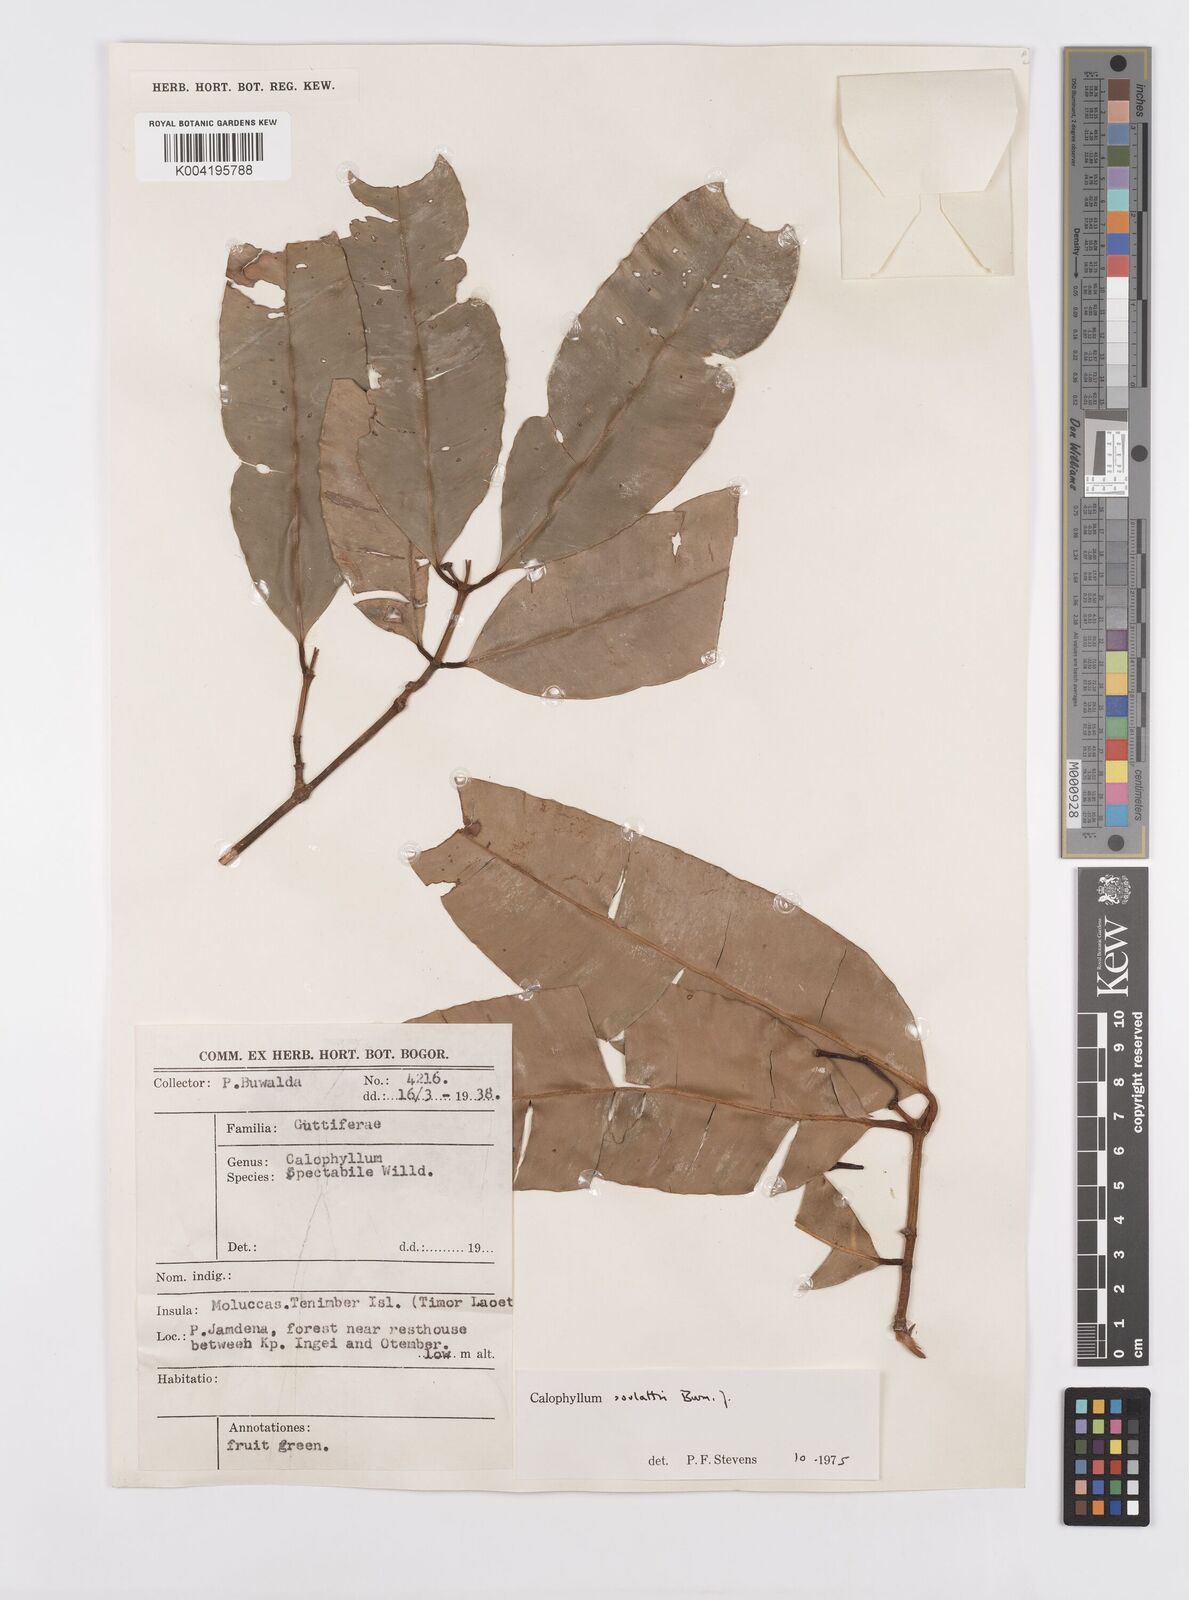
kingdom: Plantae
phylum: Tracheophyta
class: Magnoliopsida
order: Malpighiales
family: Calophyllaceae
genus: Calophyllum
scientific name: Calophyllum soulattri
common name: Bitangoor boonot
